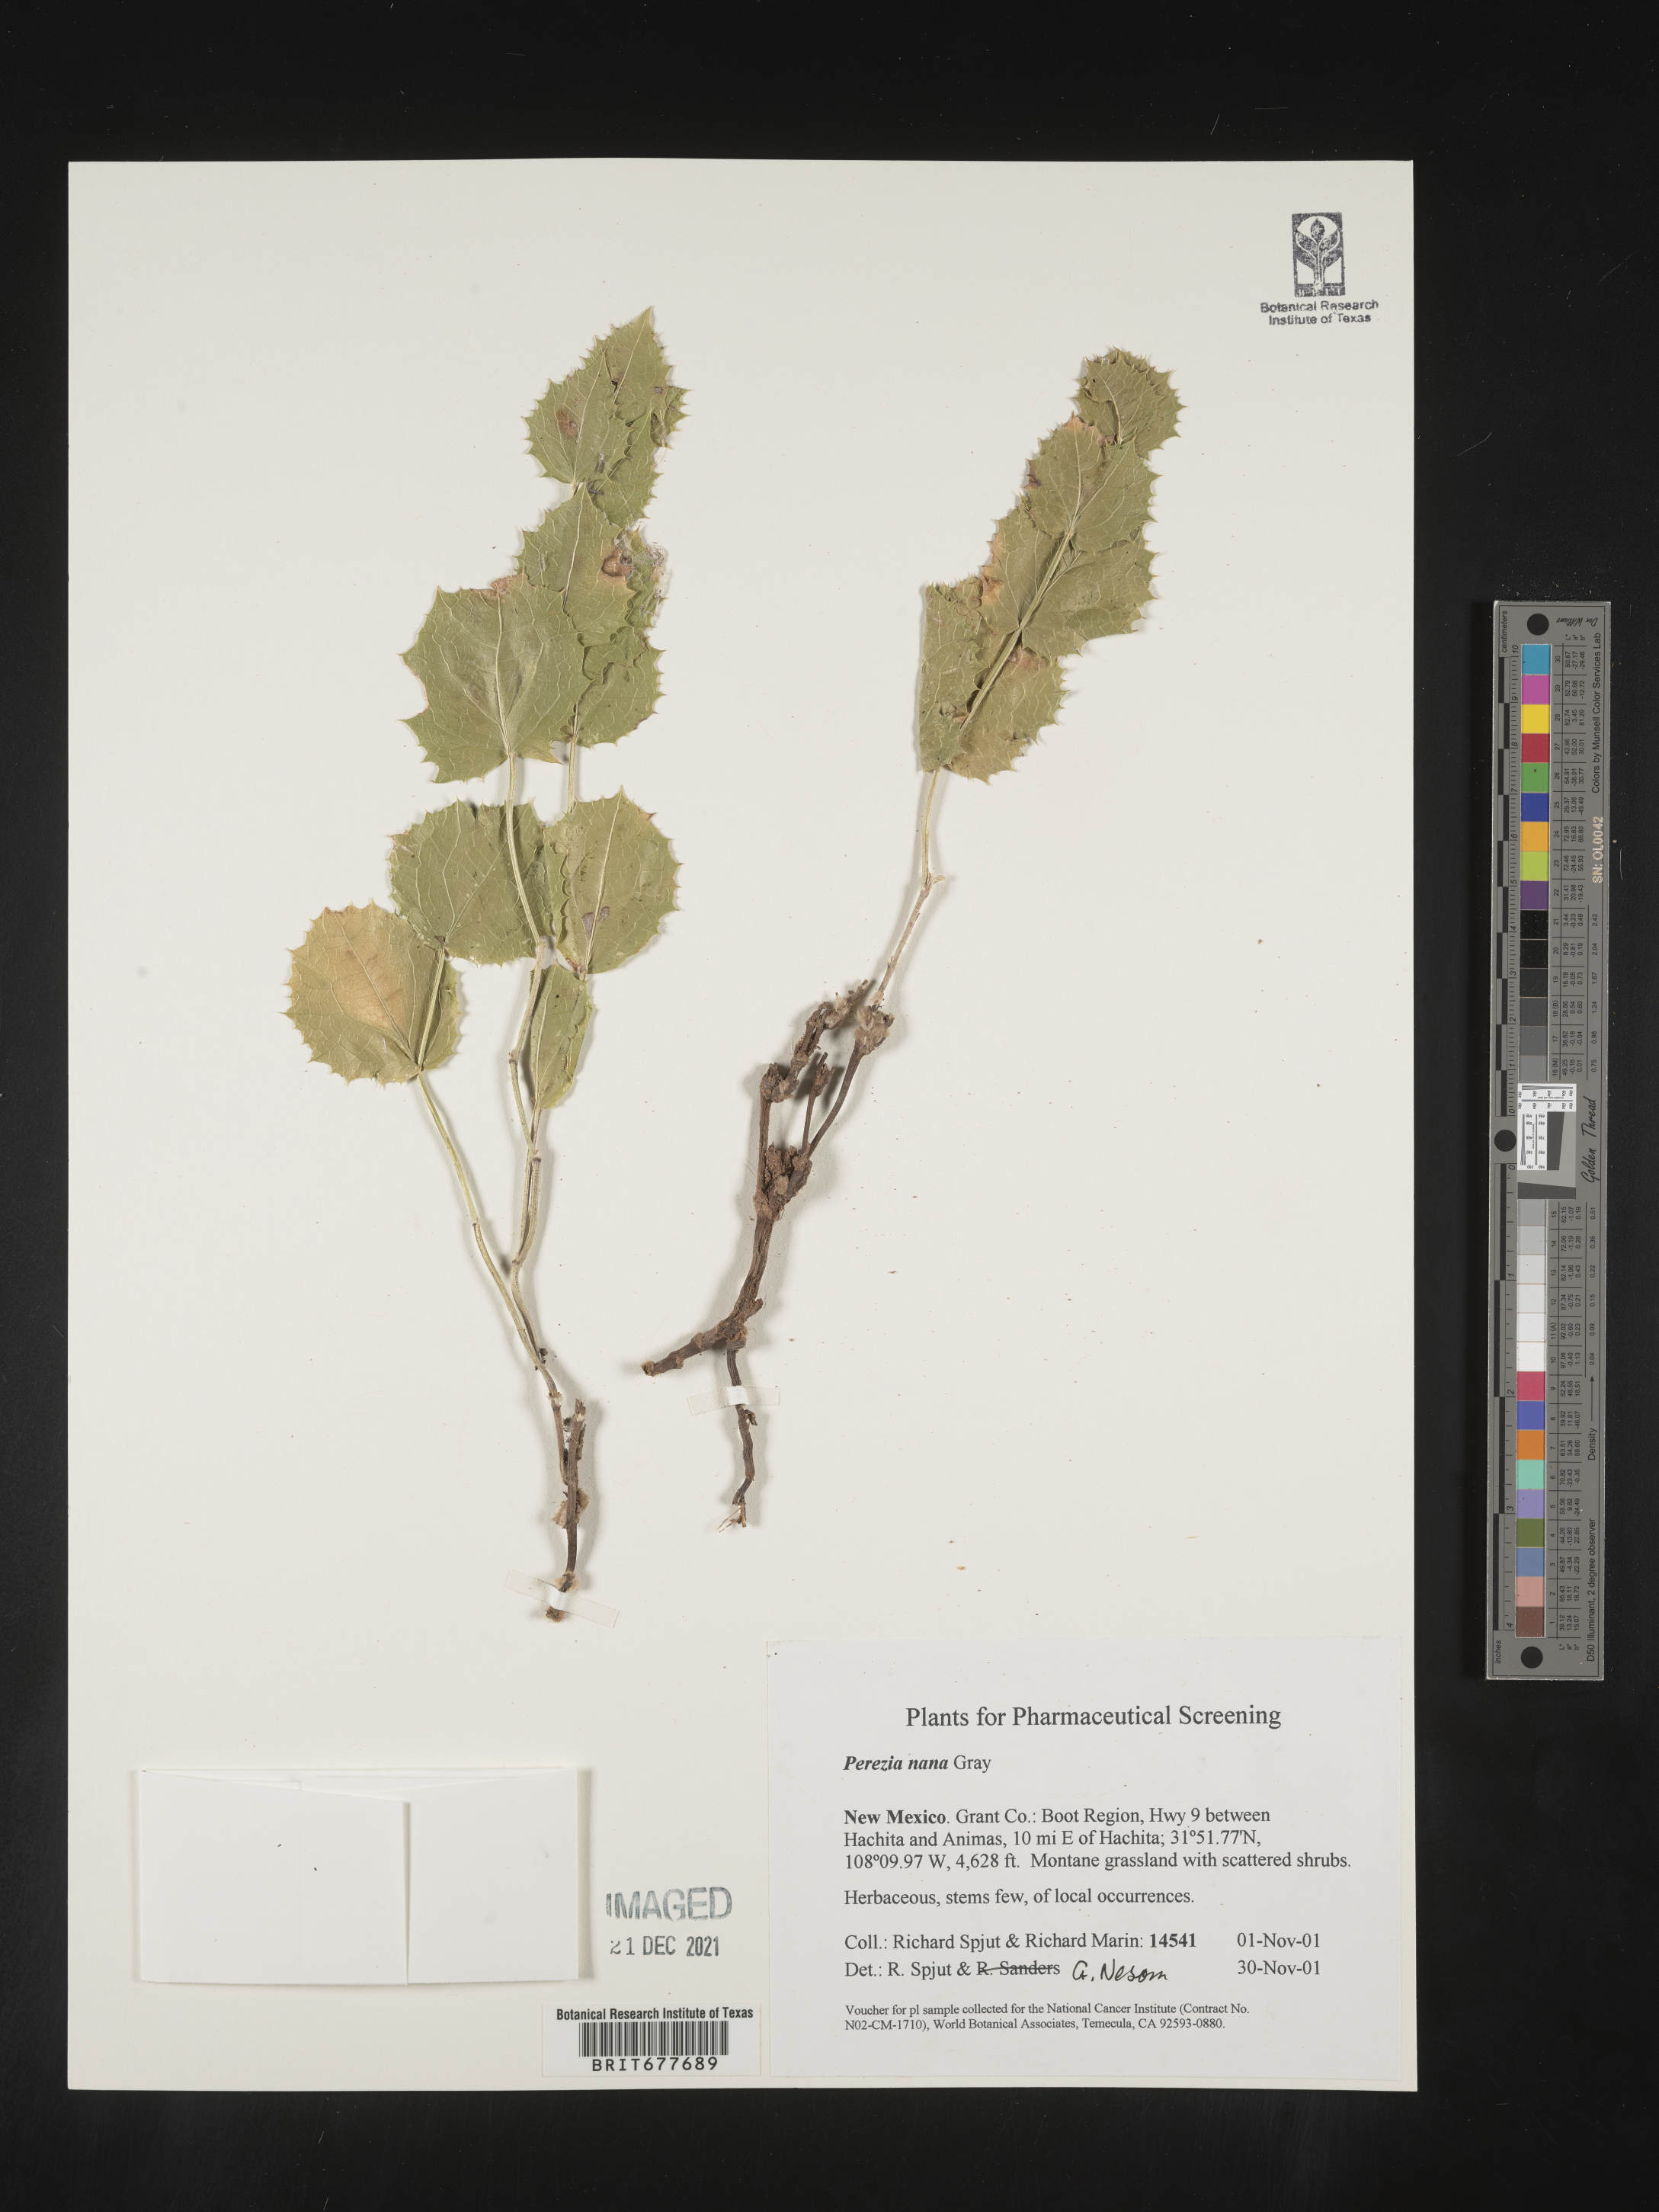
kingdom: Plantae
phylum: Tracheophyta
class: Magnoliopsida
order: Asterales
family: Asteraceae
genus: Perezia
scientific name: Perezia
